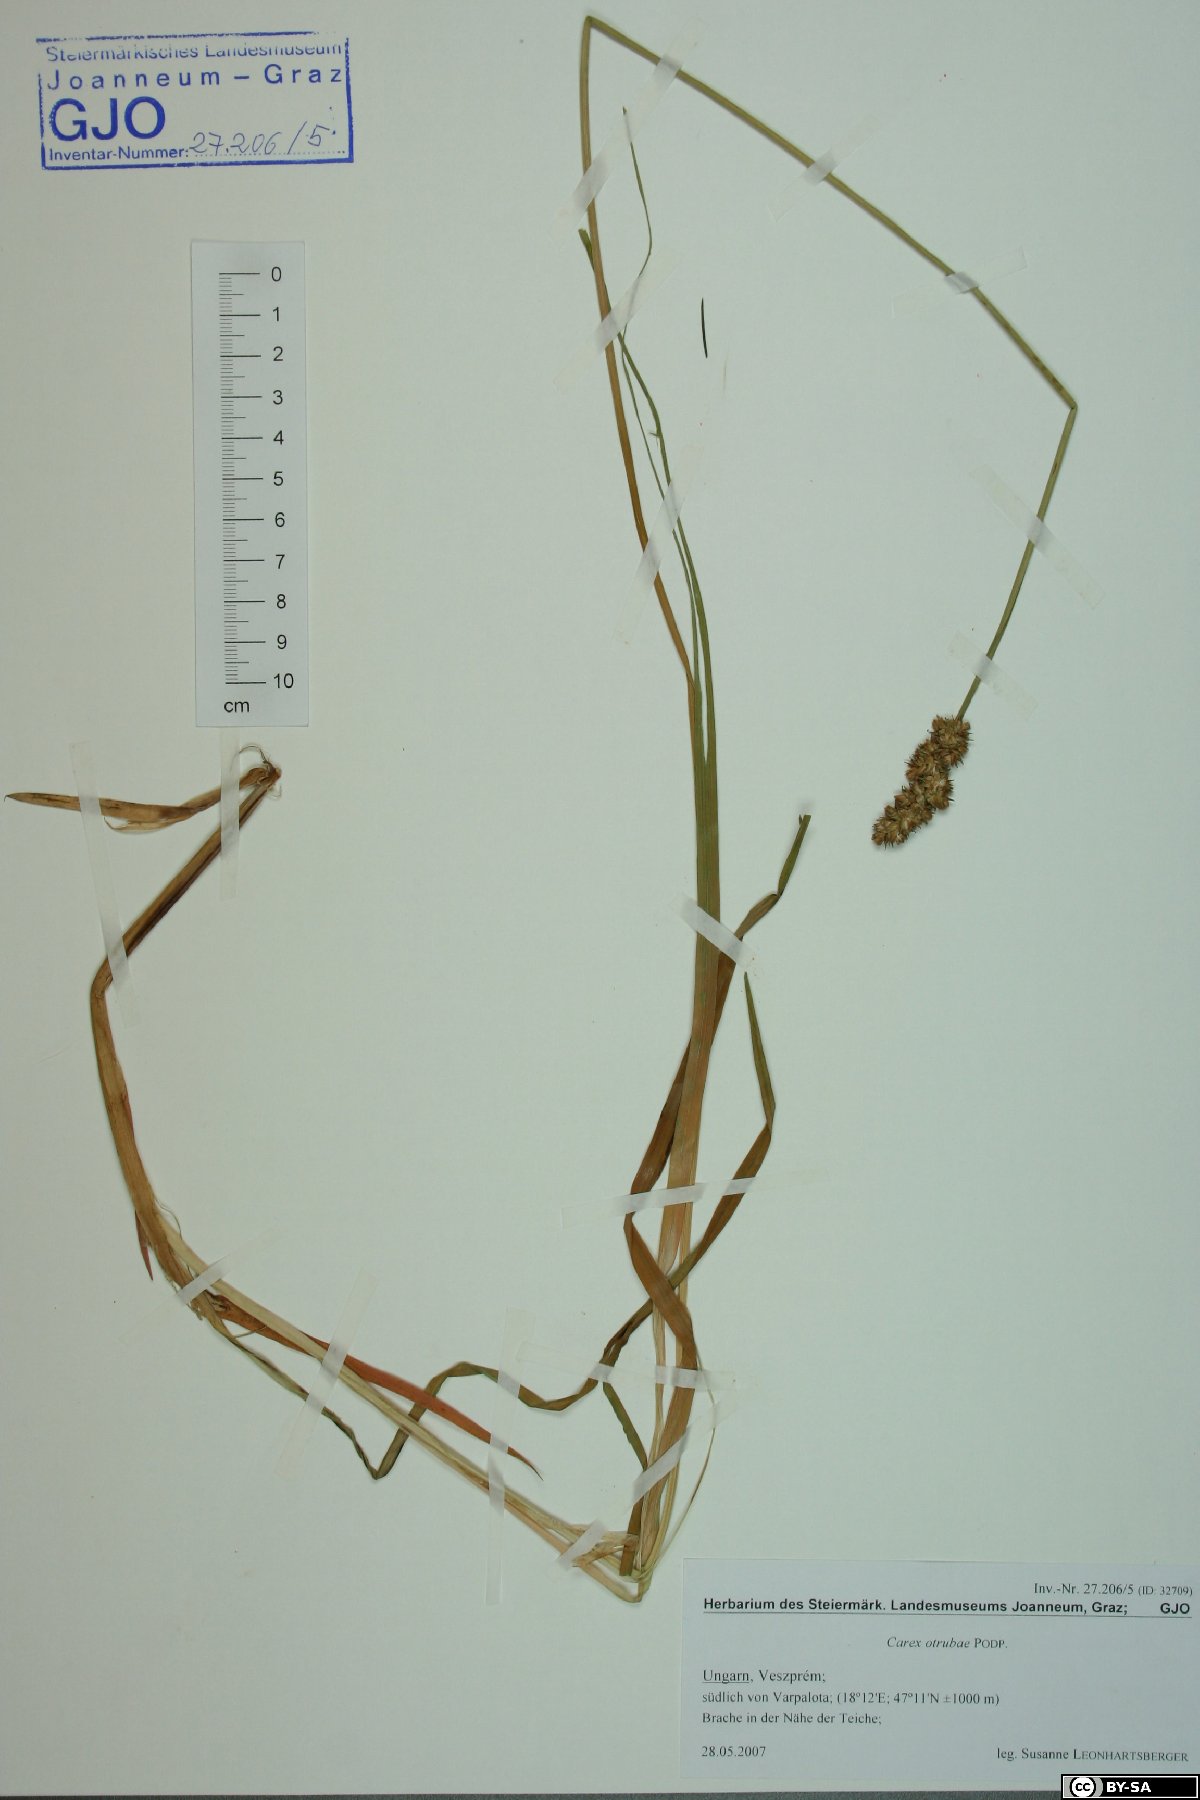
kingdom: Plantae
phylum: Tracheophyta
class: Liliopsida
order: Poales
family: Cyperaceae
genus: Carex
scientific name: Carex otrubae
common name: False fox-sedge
